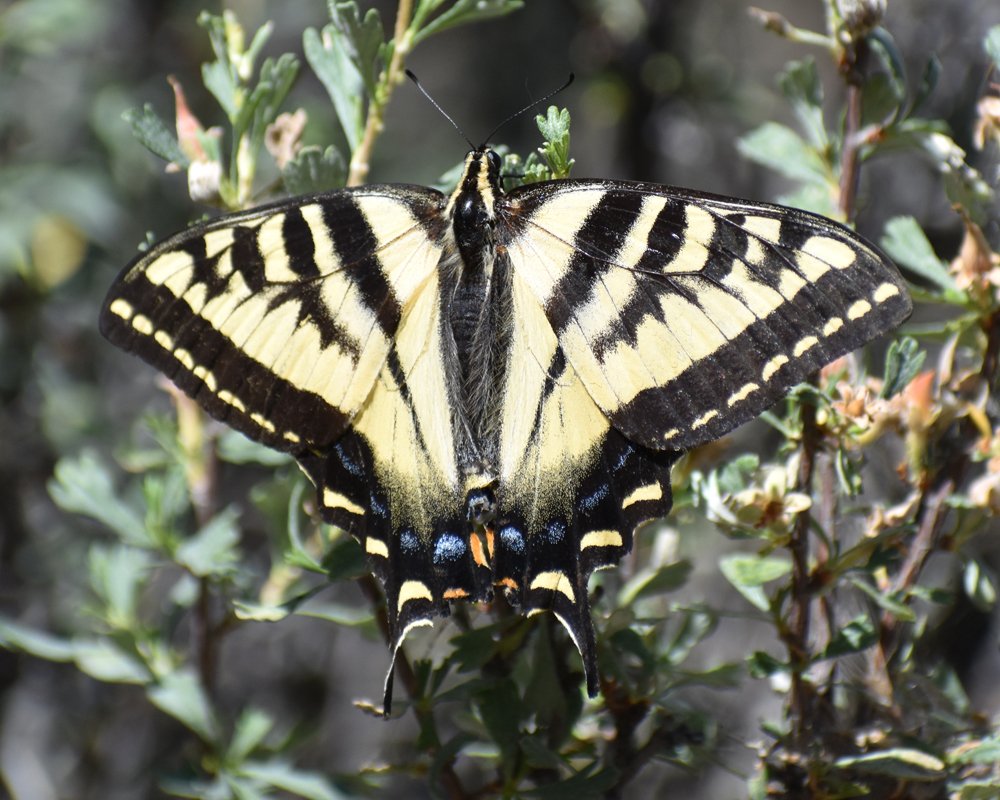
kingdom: Animalia
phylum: Arthropoda
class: Insecta
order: Lepidoptera
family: Papilionidae
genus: Pterourus
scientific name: Pterourus rutulus
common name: Western Tiger Swallowtail
